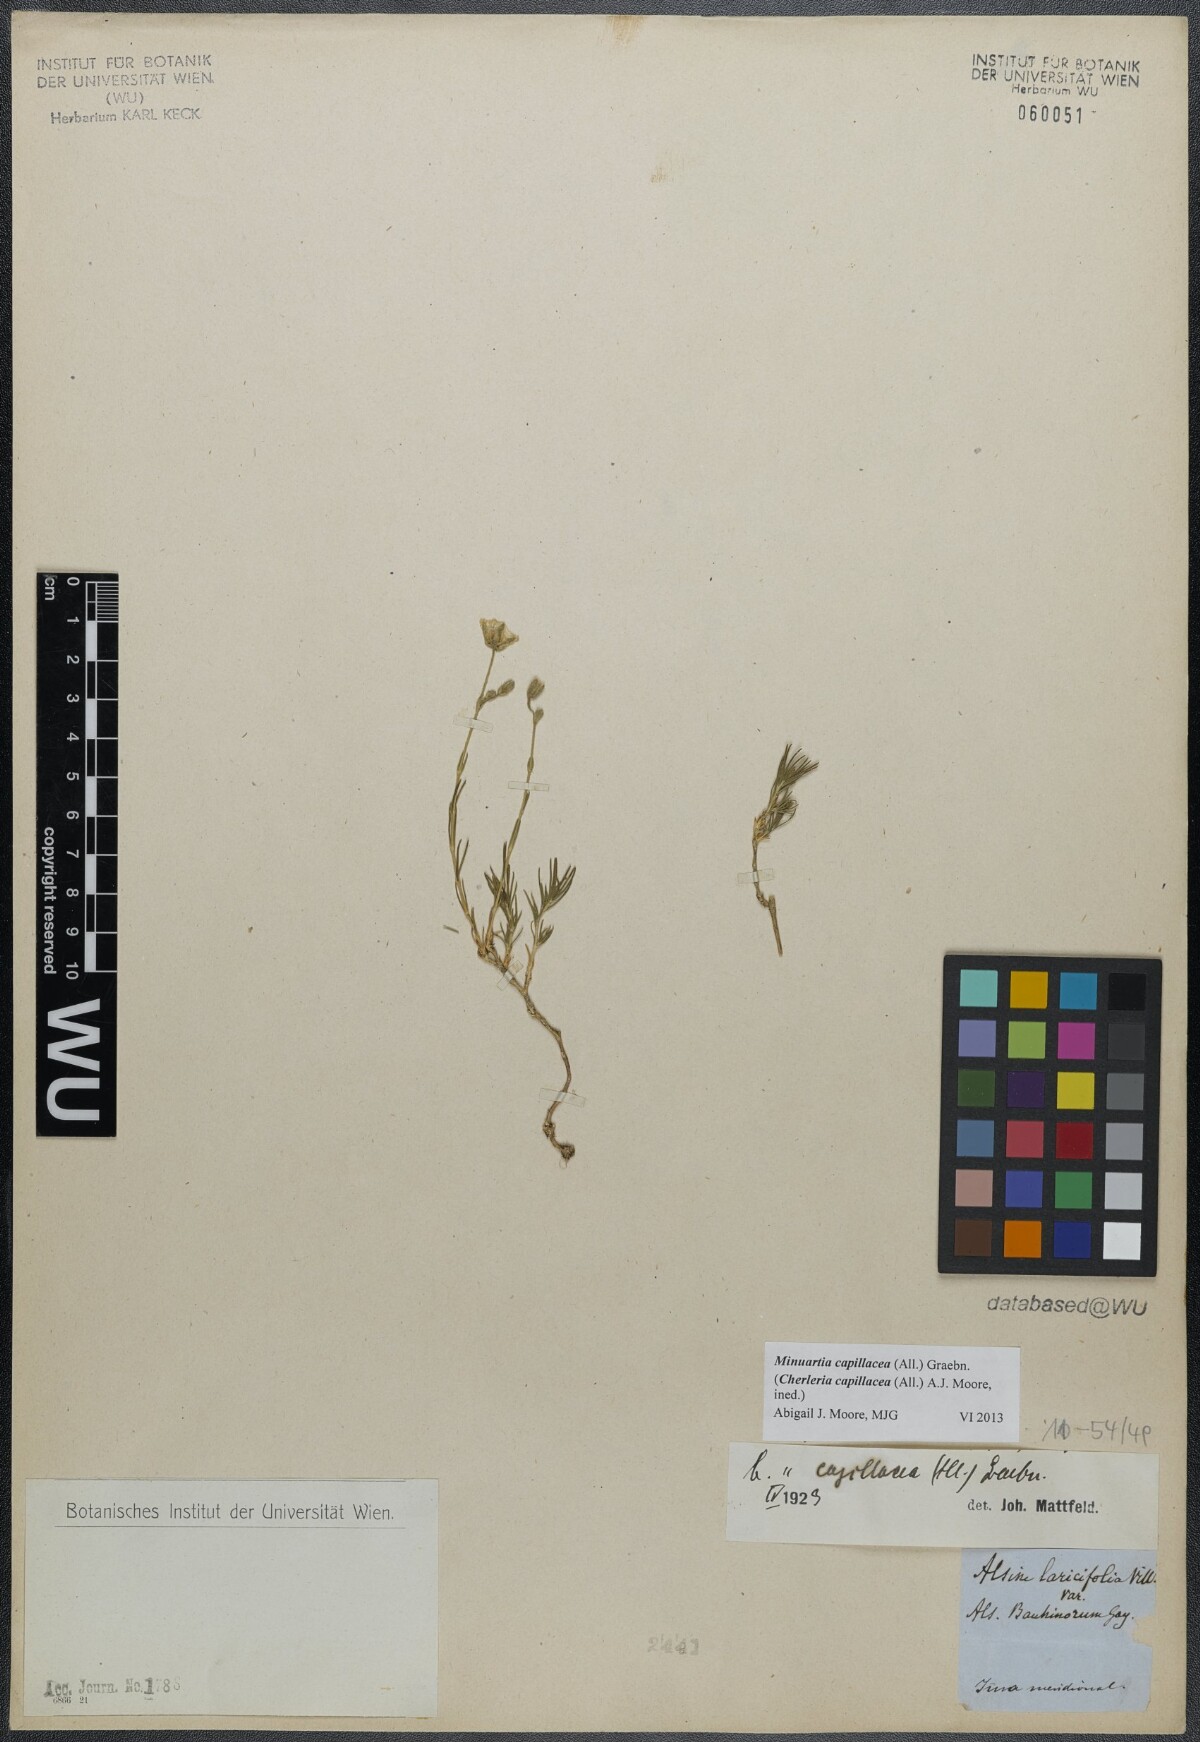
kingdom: Plantae
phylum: Tracheophyta
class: Magnoliopsida
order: Caryophyllales
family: Caryophyllaceae
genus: Cherleria
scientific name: Cherleria capillacea
